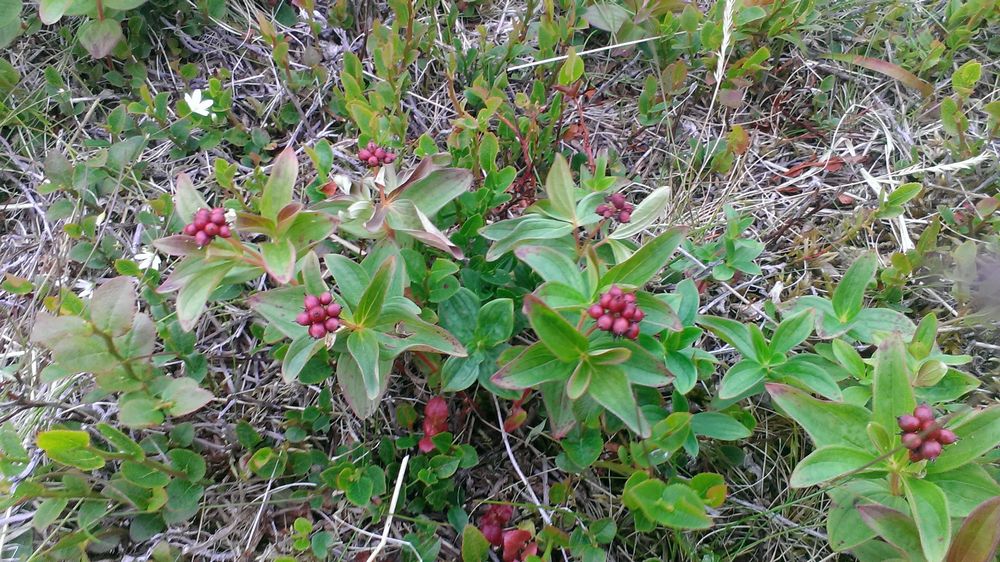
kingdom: Plantae
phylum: Tracheophyta
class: Magnoliopsida
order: Cornales
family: Cornaceae
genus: Cornus
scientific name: Cornus suecica
